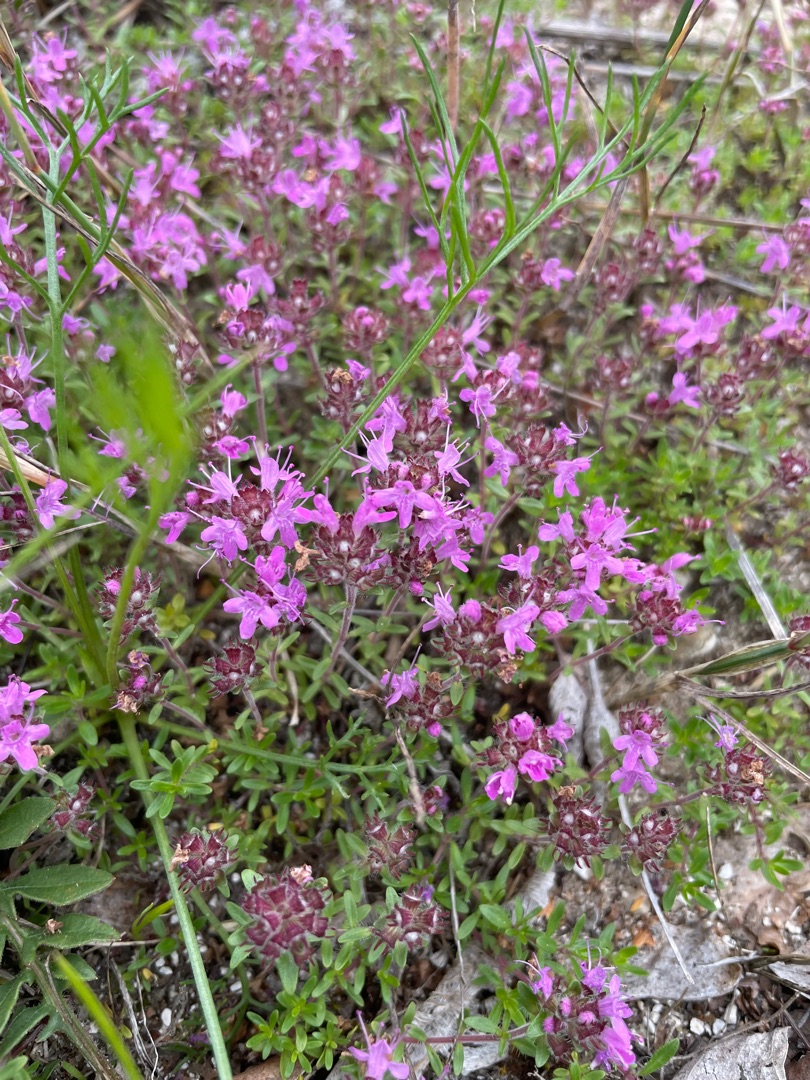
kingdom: Plantae
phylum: Tracheophyta
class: Magnoliopsida
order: Lamiales
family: Lamiaceae
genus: Thymus
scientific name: Thymus serpyllum
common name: Smalbladet timian
